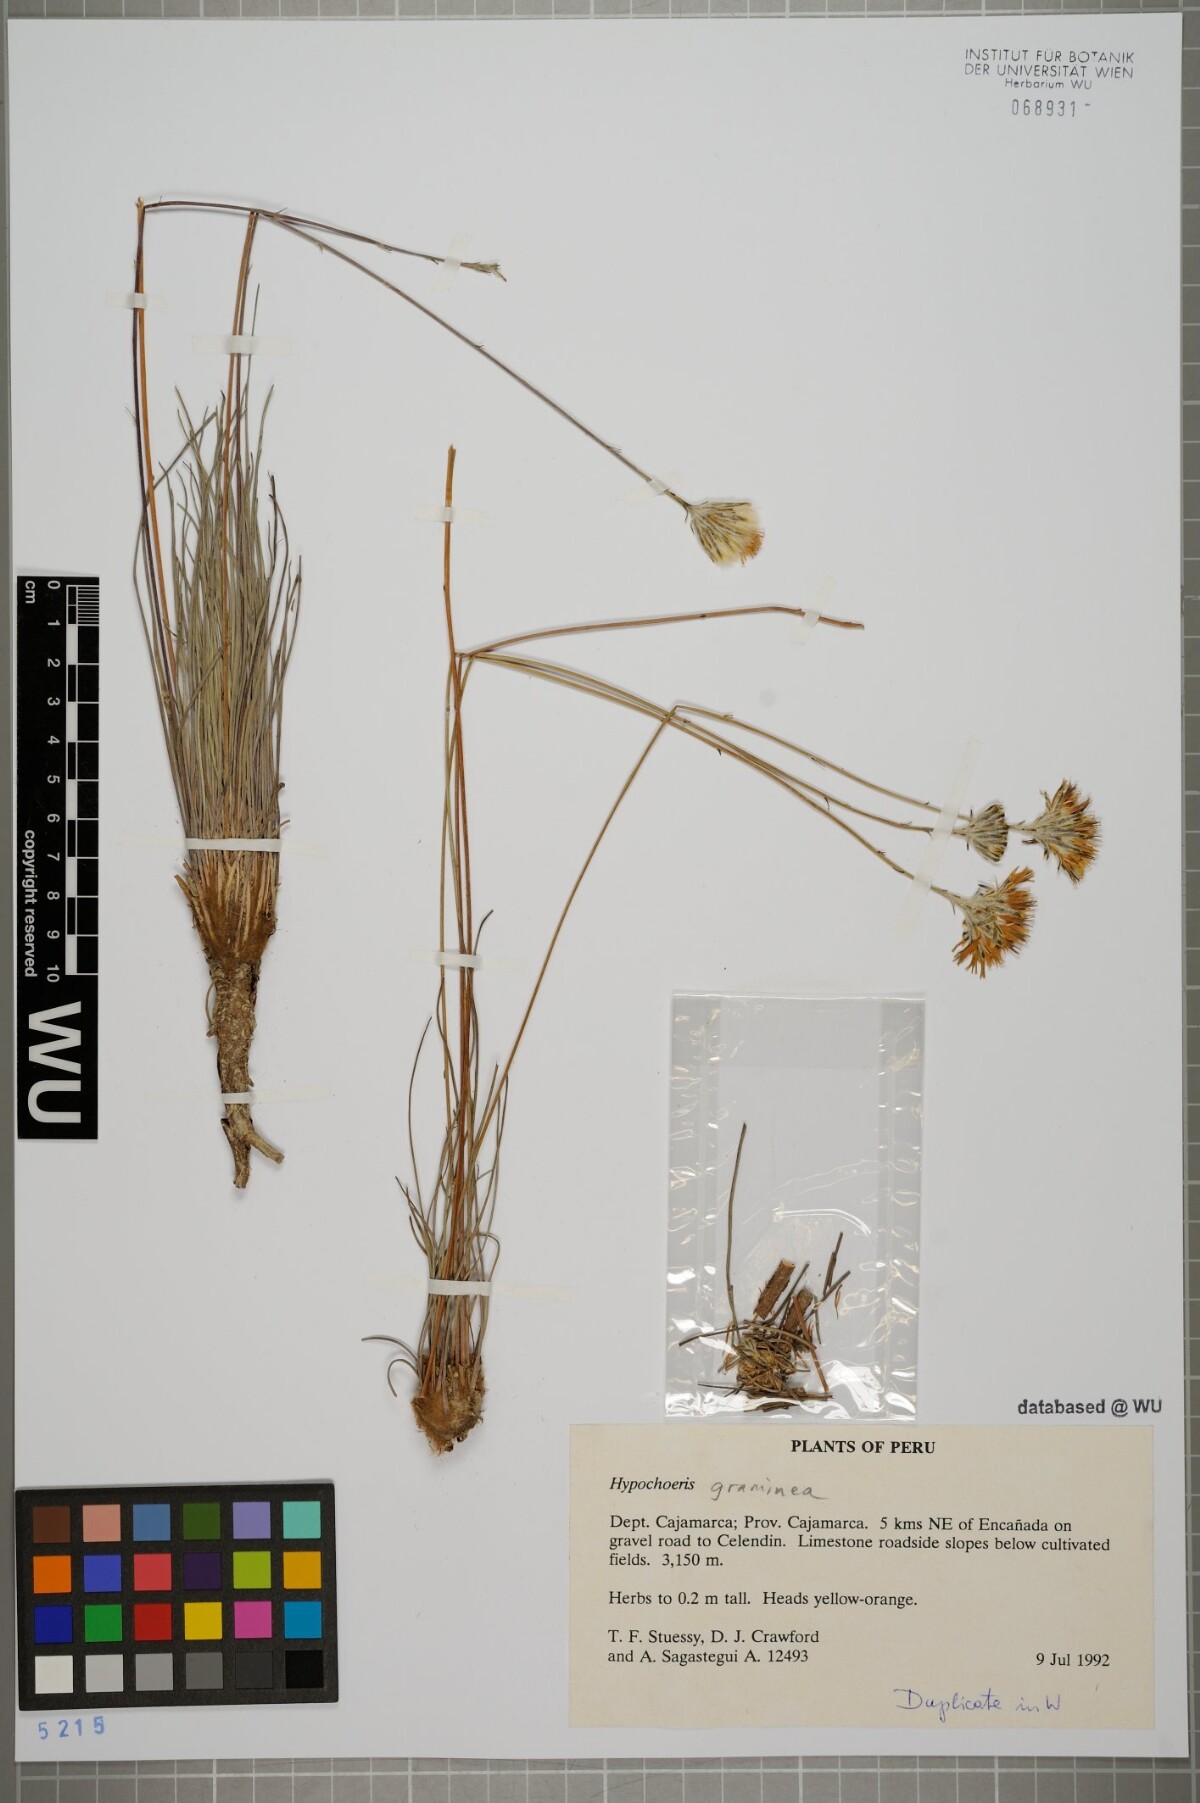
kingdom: Plantae
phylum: Tracheophyta
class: Magnoliopsida
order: Asterales
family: Asteraceae
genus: Hypochaeris
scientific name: Hypochaeris graminea
